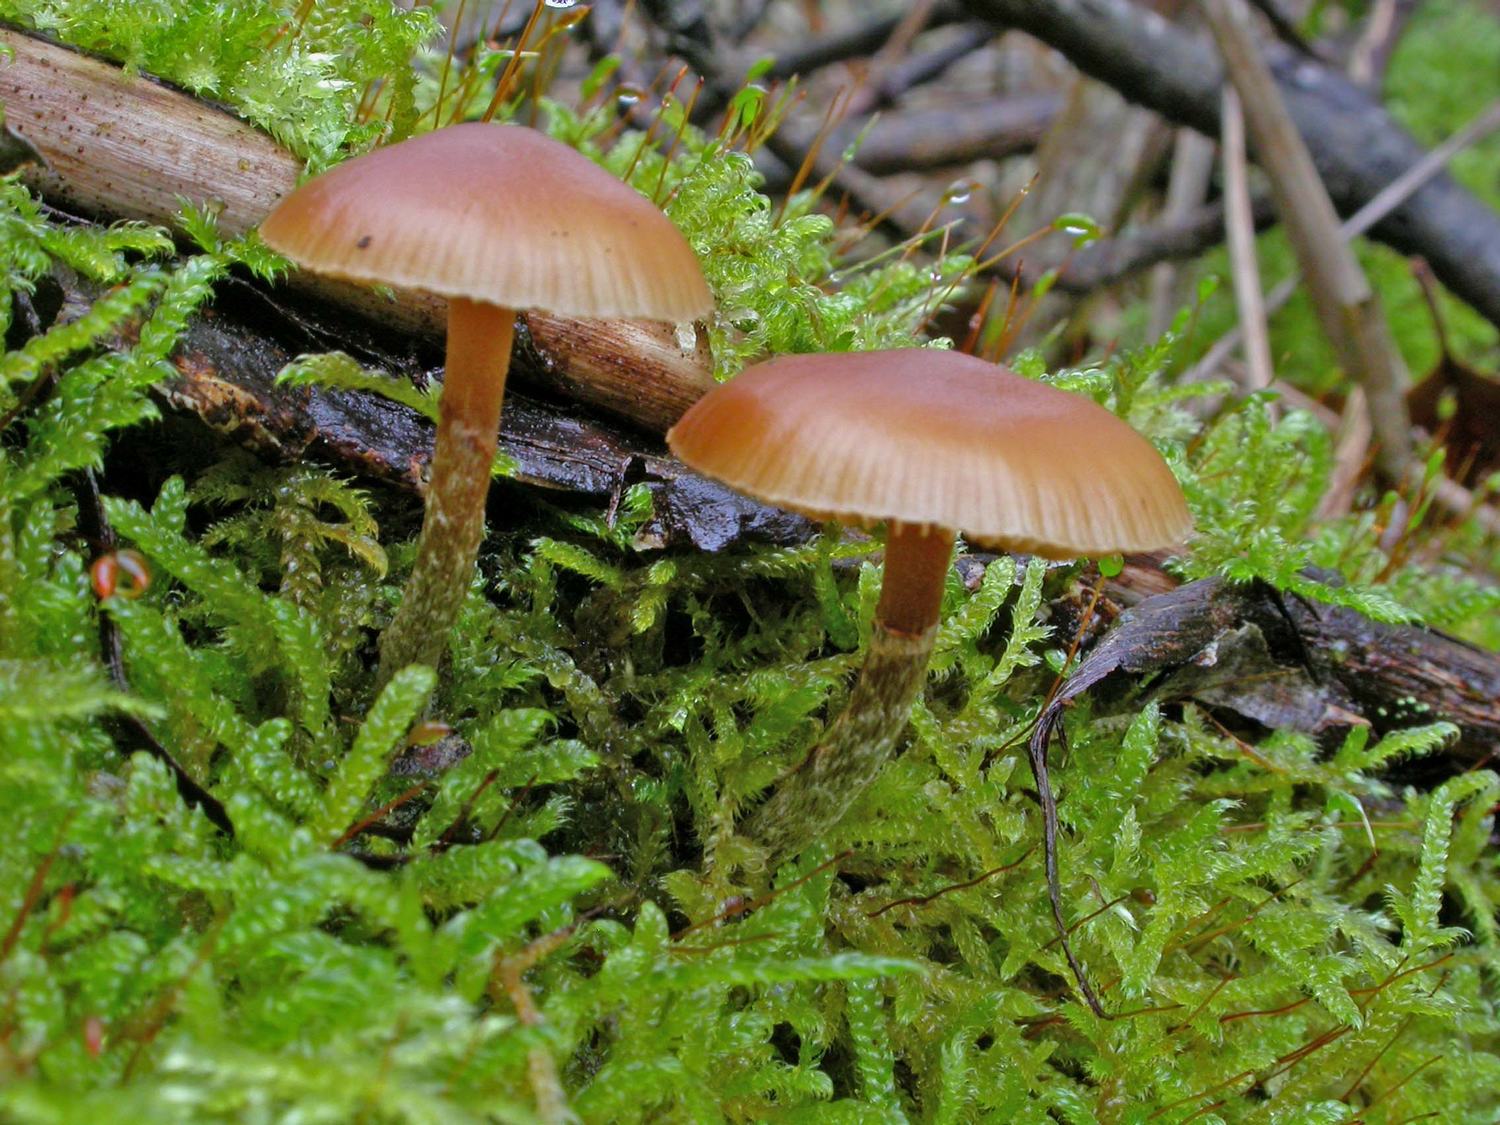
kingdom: Fungi
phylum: Basidiomycota
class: Agaricomycetes
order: Agaricales
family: Hymenogastraceae
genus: Galerina
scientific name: Galerina marginata
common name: randbæltet hjelmhat
